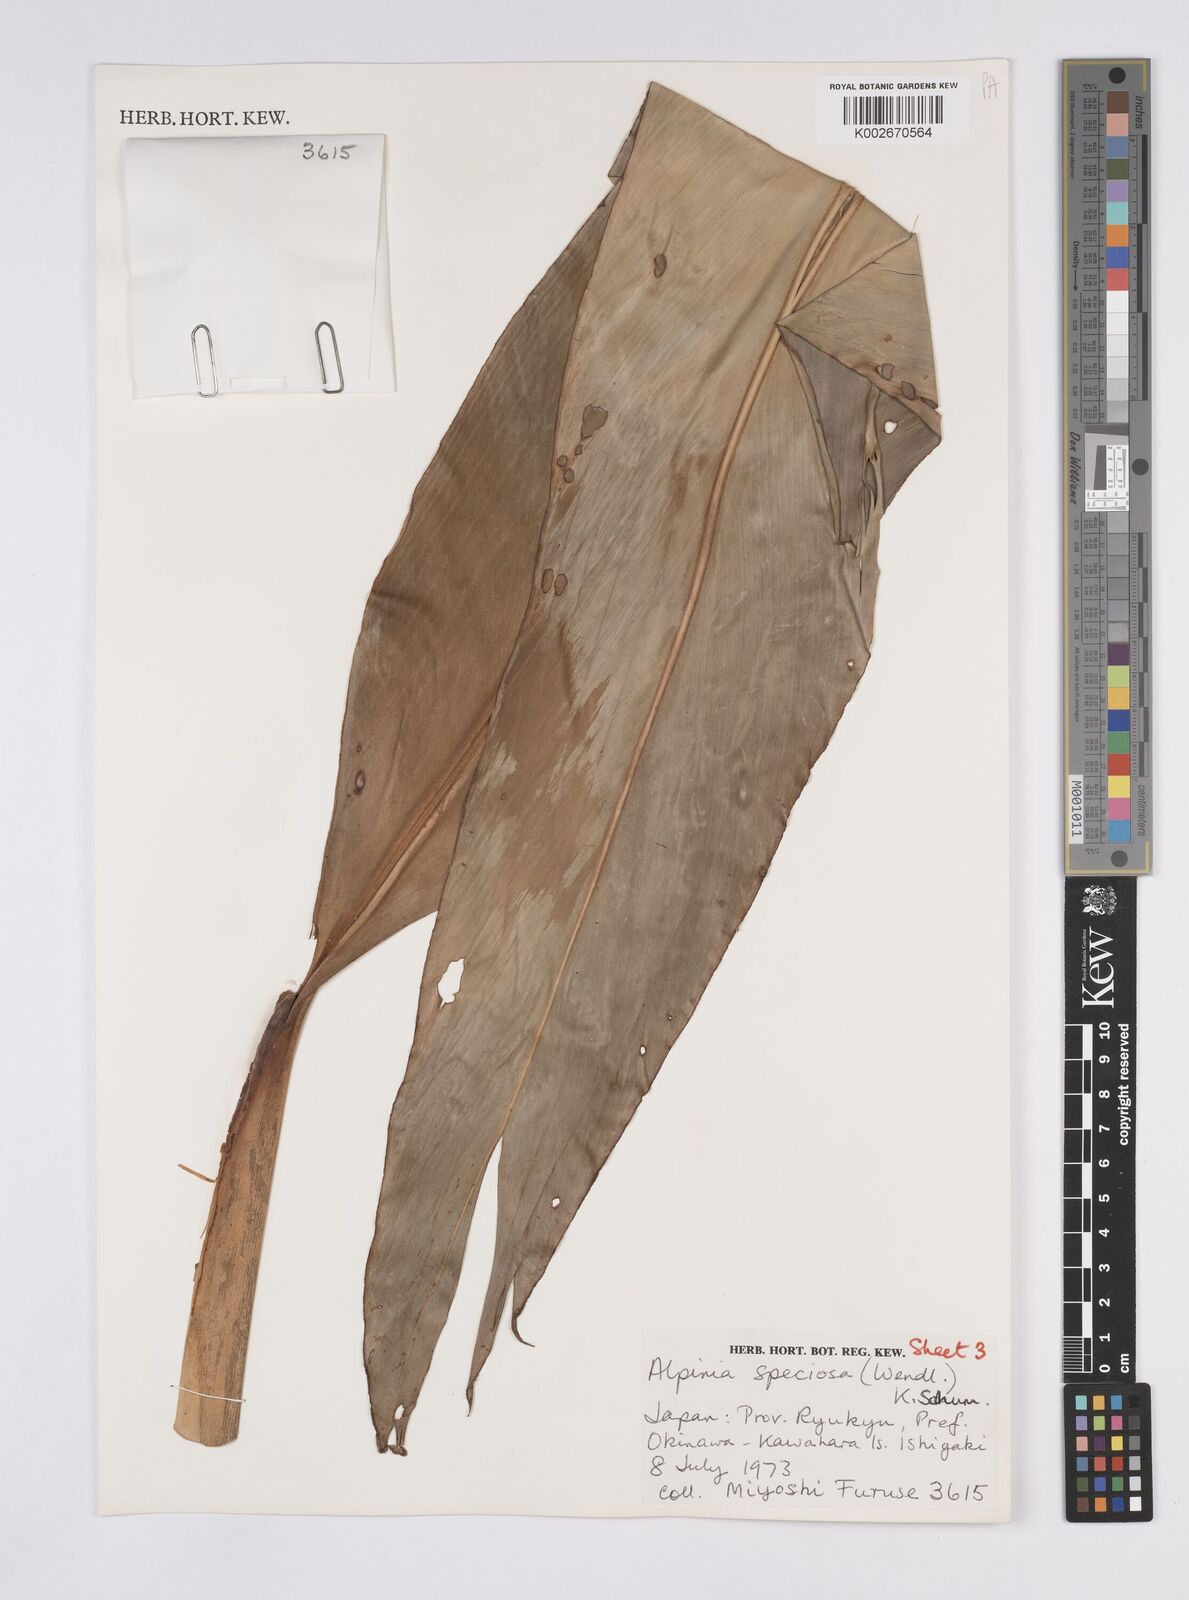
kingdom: Plantae
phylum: Tracheophyta
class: Liliopsida
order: Zingiberales
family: Zingiberaceae
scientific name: Zingiberaceae
